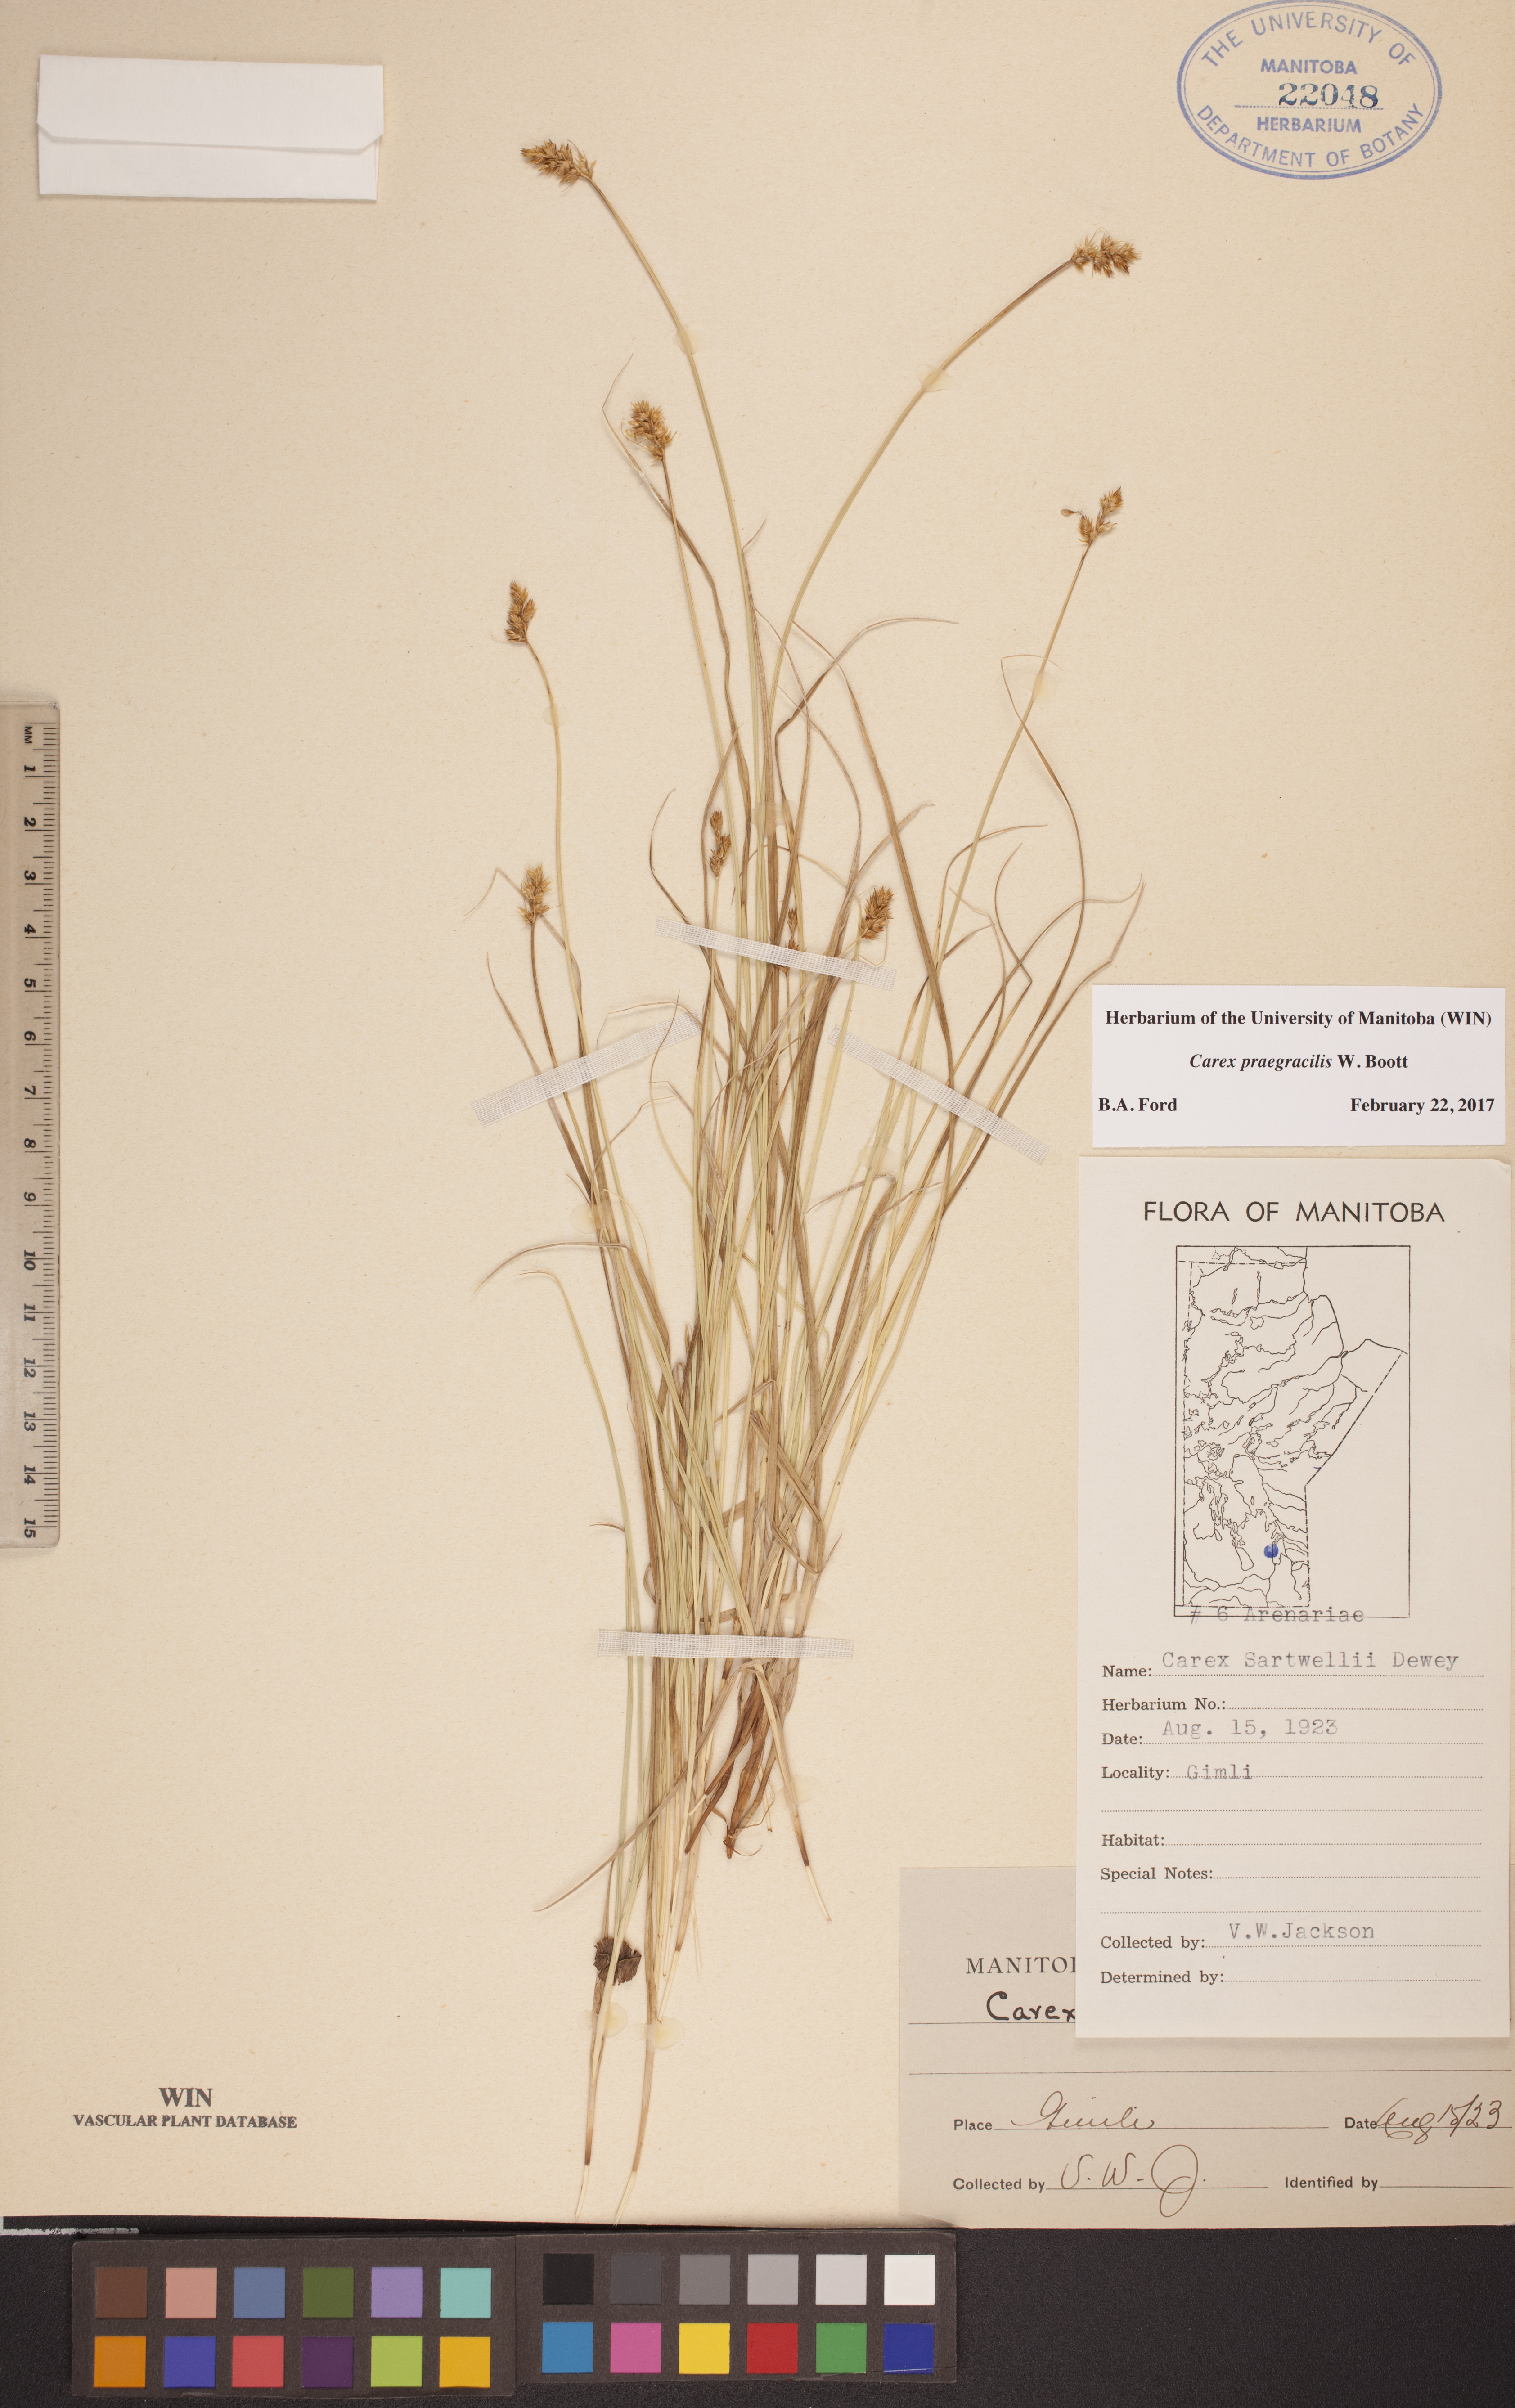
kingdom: Plantae
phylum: Tracheophyta
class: Liliopsida
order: Poales
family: Cyperaceae
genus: Carex
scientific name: Carex praegracilis
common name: Black creeper sedge
